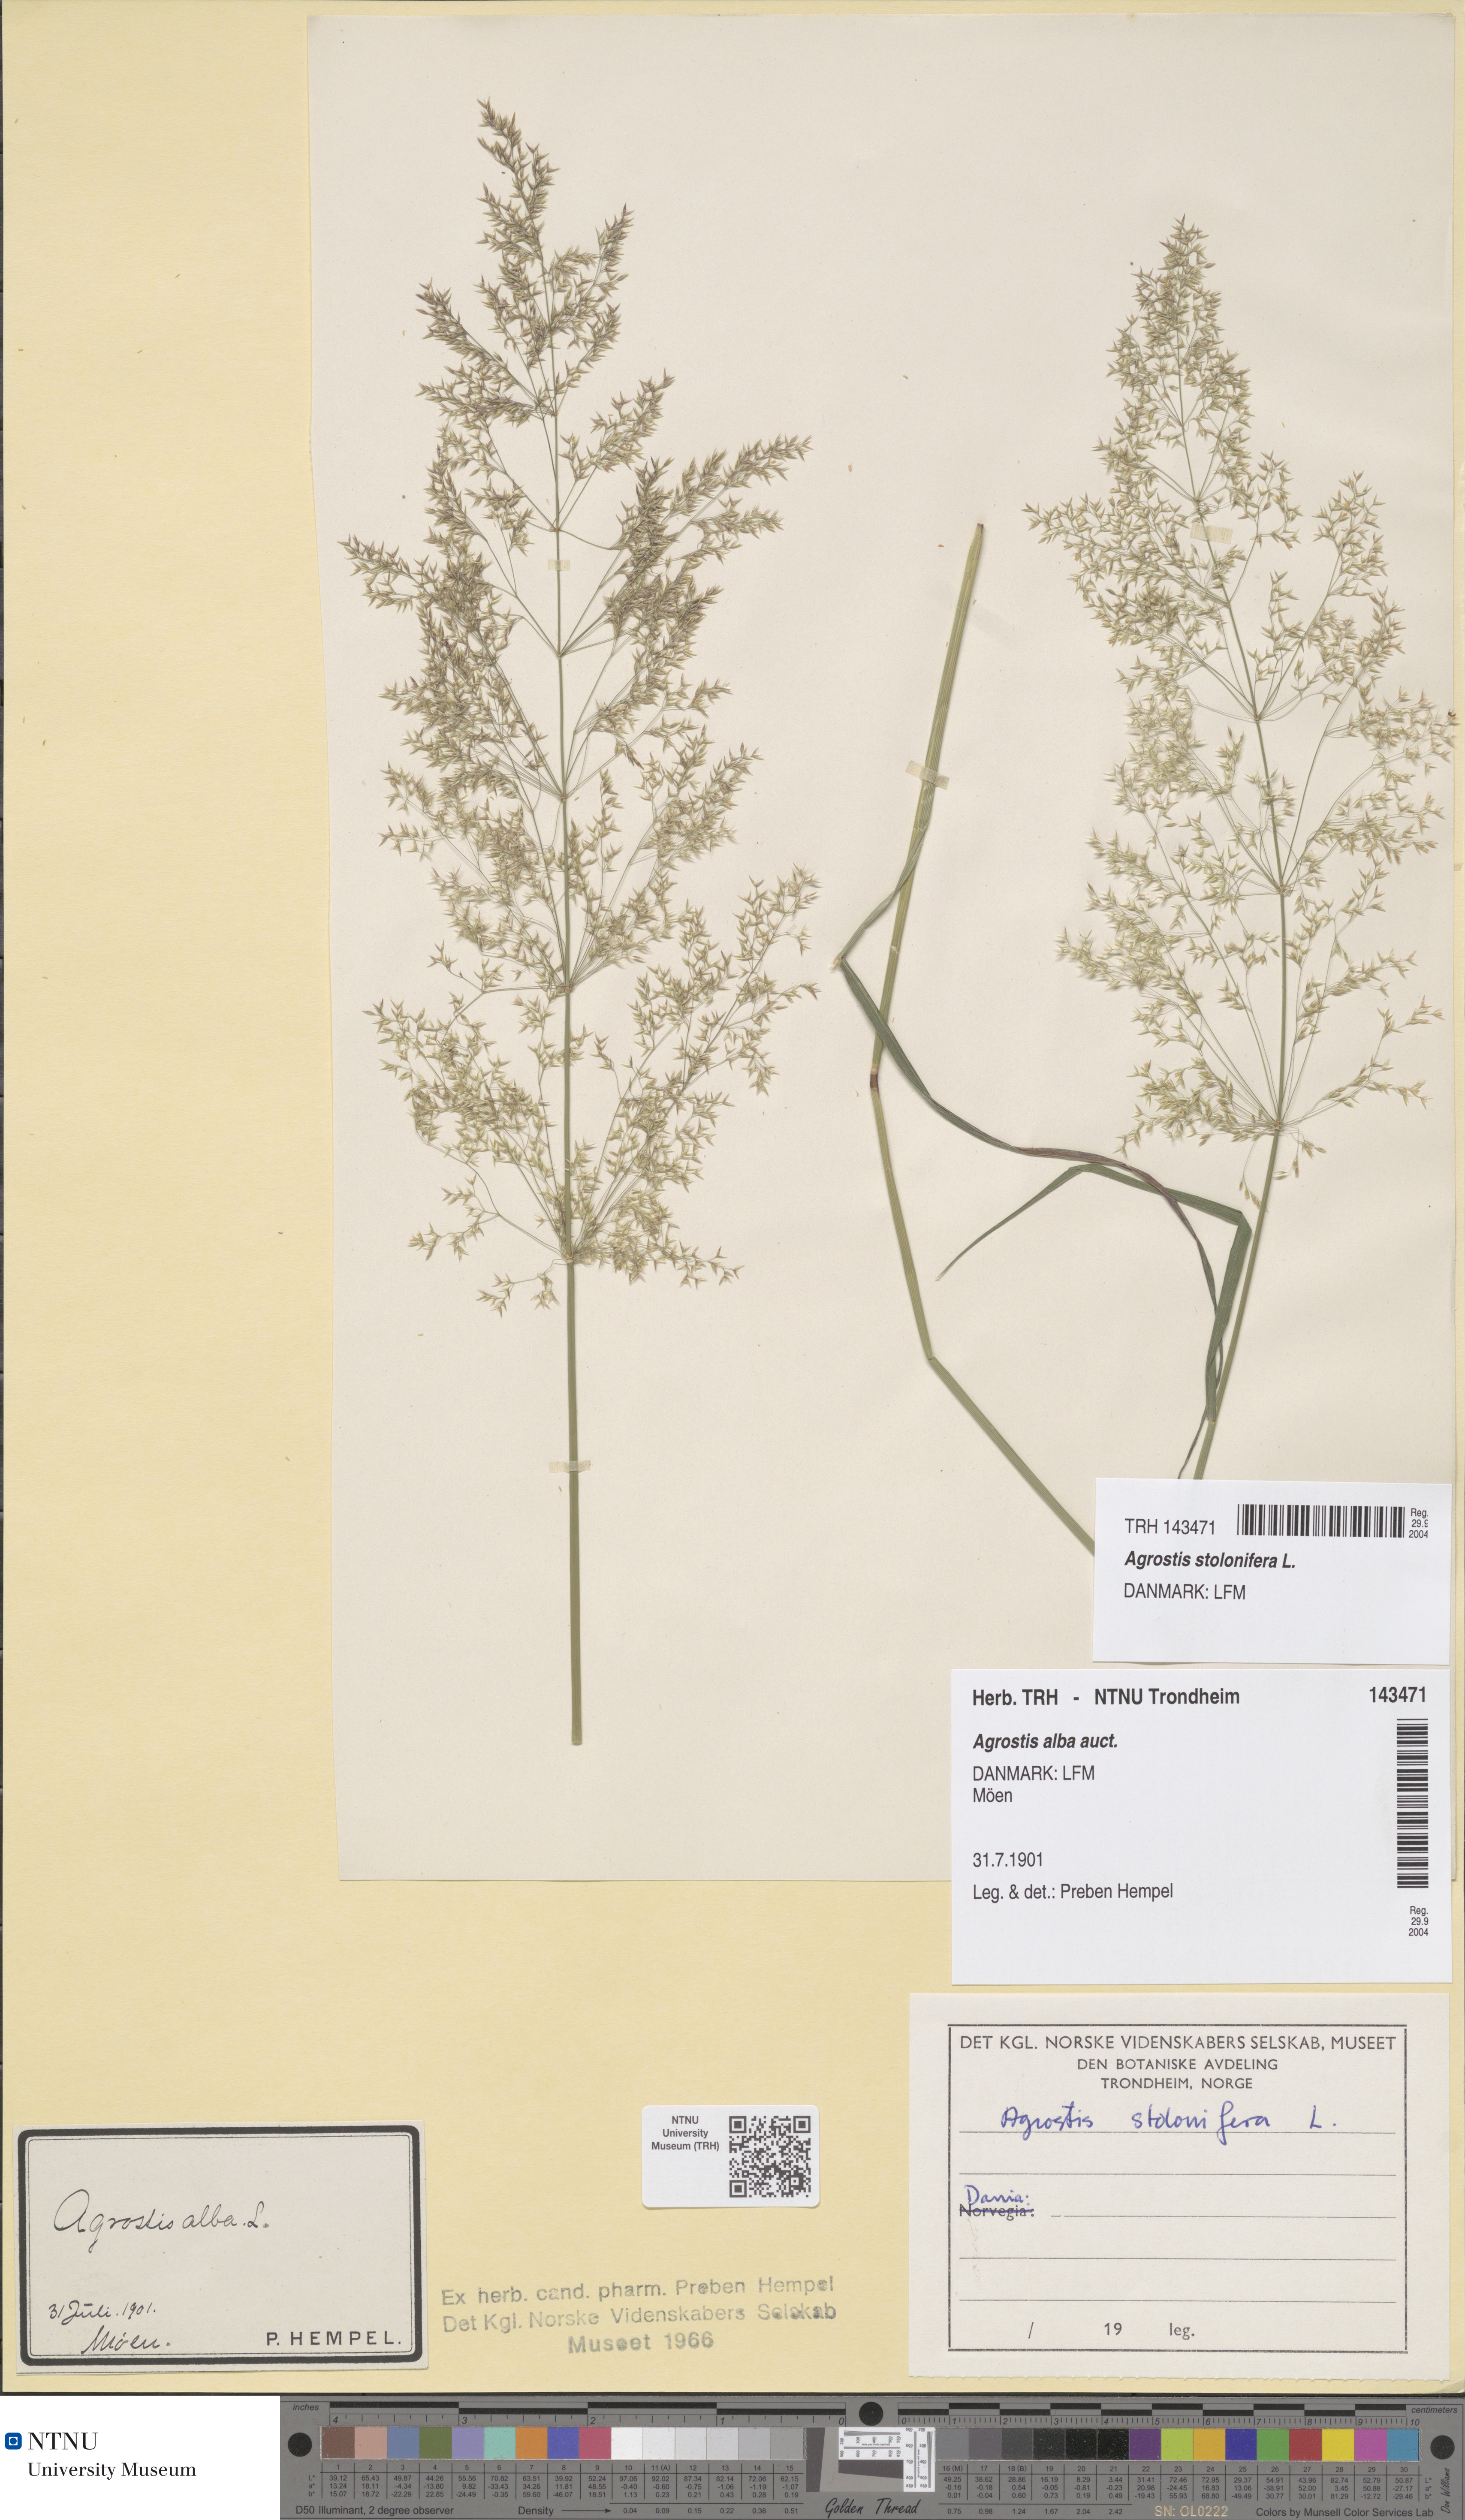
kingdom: Plantae
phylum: Tracheophyta
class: Liliopsida
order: Poales
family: Poaceae
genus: Agrostis
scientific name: Agrostis stolonifera
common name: Creeping bentgrass
